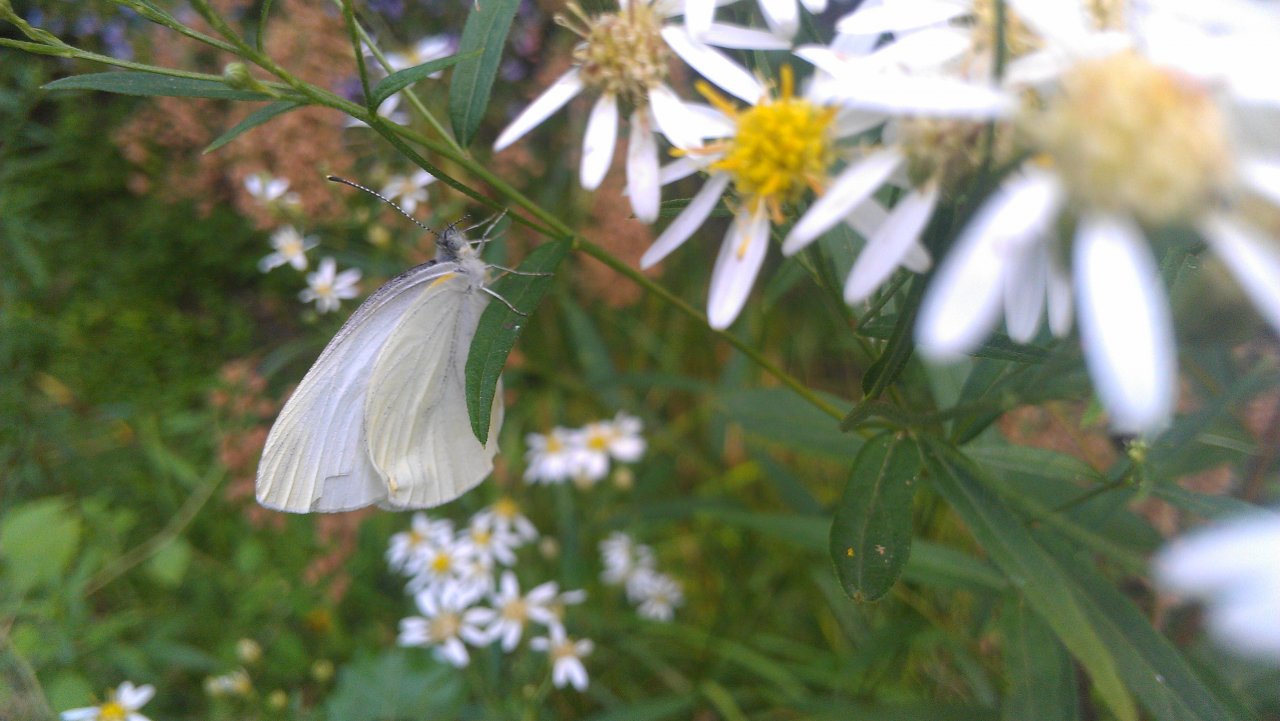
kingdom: Animalia
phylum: Arthropoda
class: Insecta
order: Lepidoptera
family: Pieridae
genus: Pieris
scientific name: Pieris rapae
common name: Cabbage White
